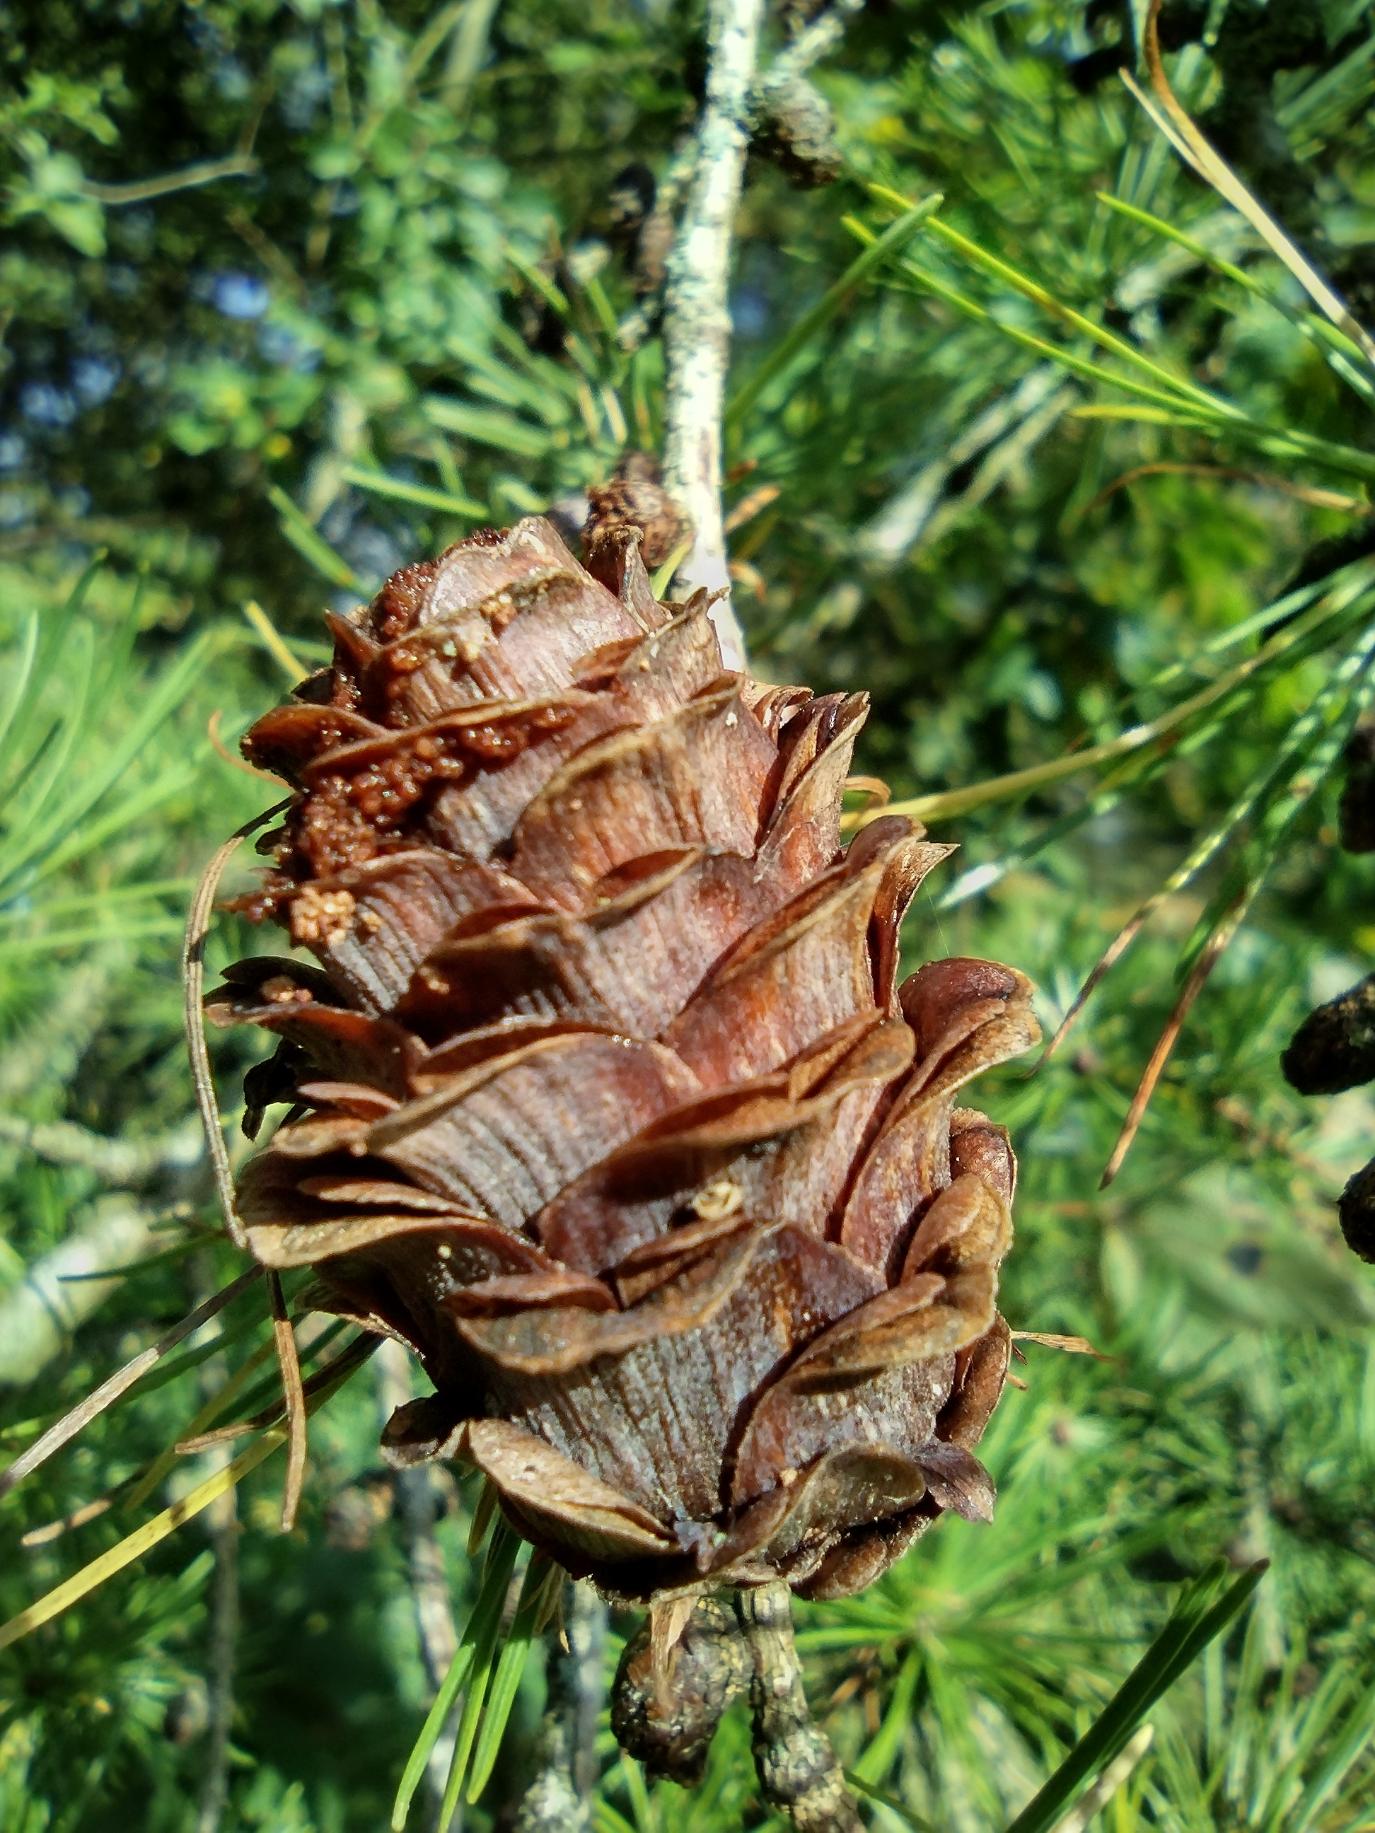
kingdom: Plantae
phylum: Tracheophyta
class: Pinopsida
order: Pinales
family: Pinaceae
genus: Larix
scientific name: Larix kaempferi
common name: Japansk lærk
